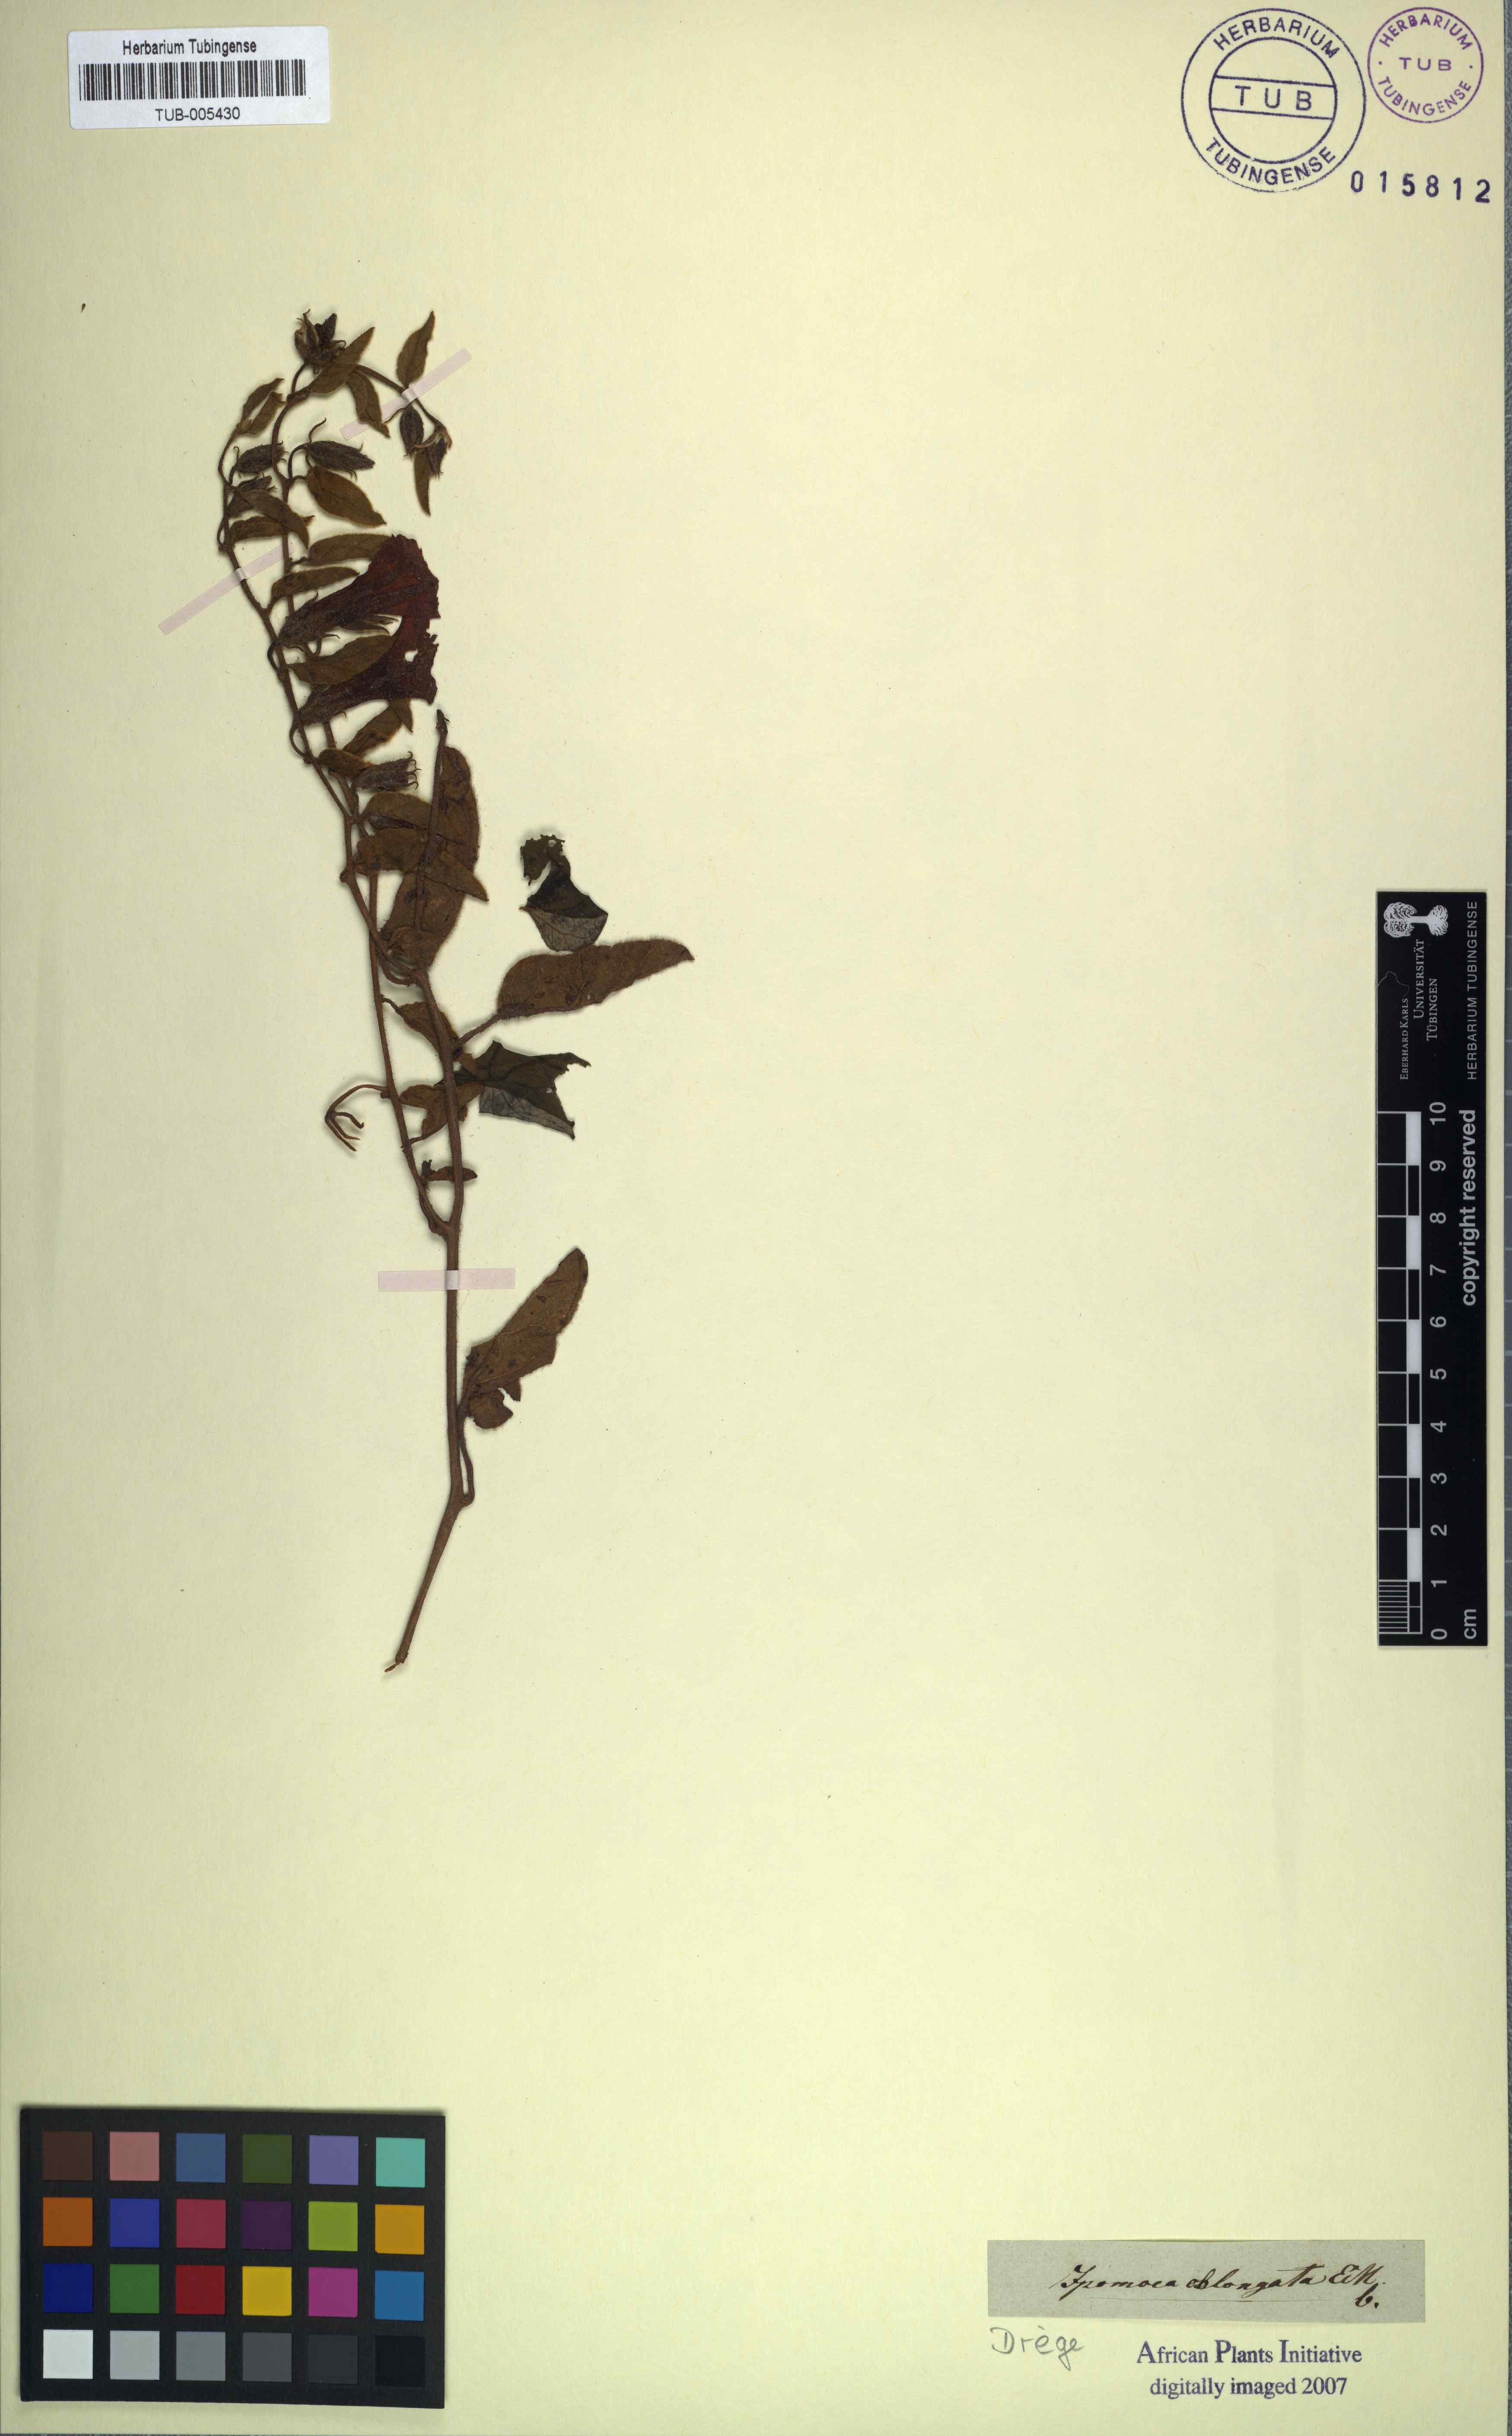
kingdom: Plantae
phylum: Tracheophyta
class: Magnoliopsida
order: Solanales
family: Convolvulaceae
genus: Ipomoea
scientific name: Ipomoea oblongata
